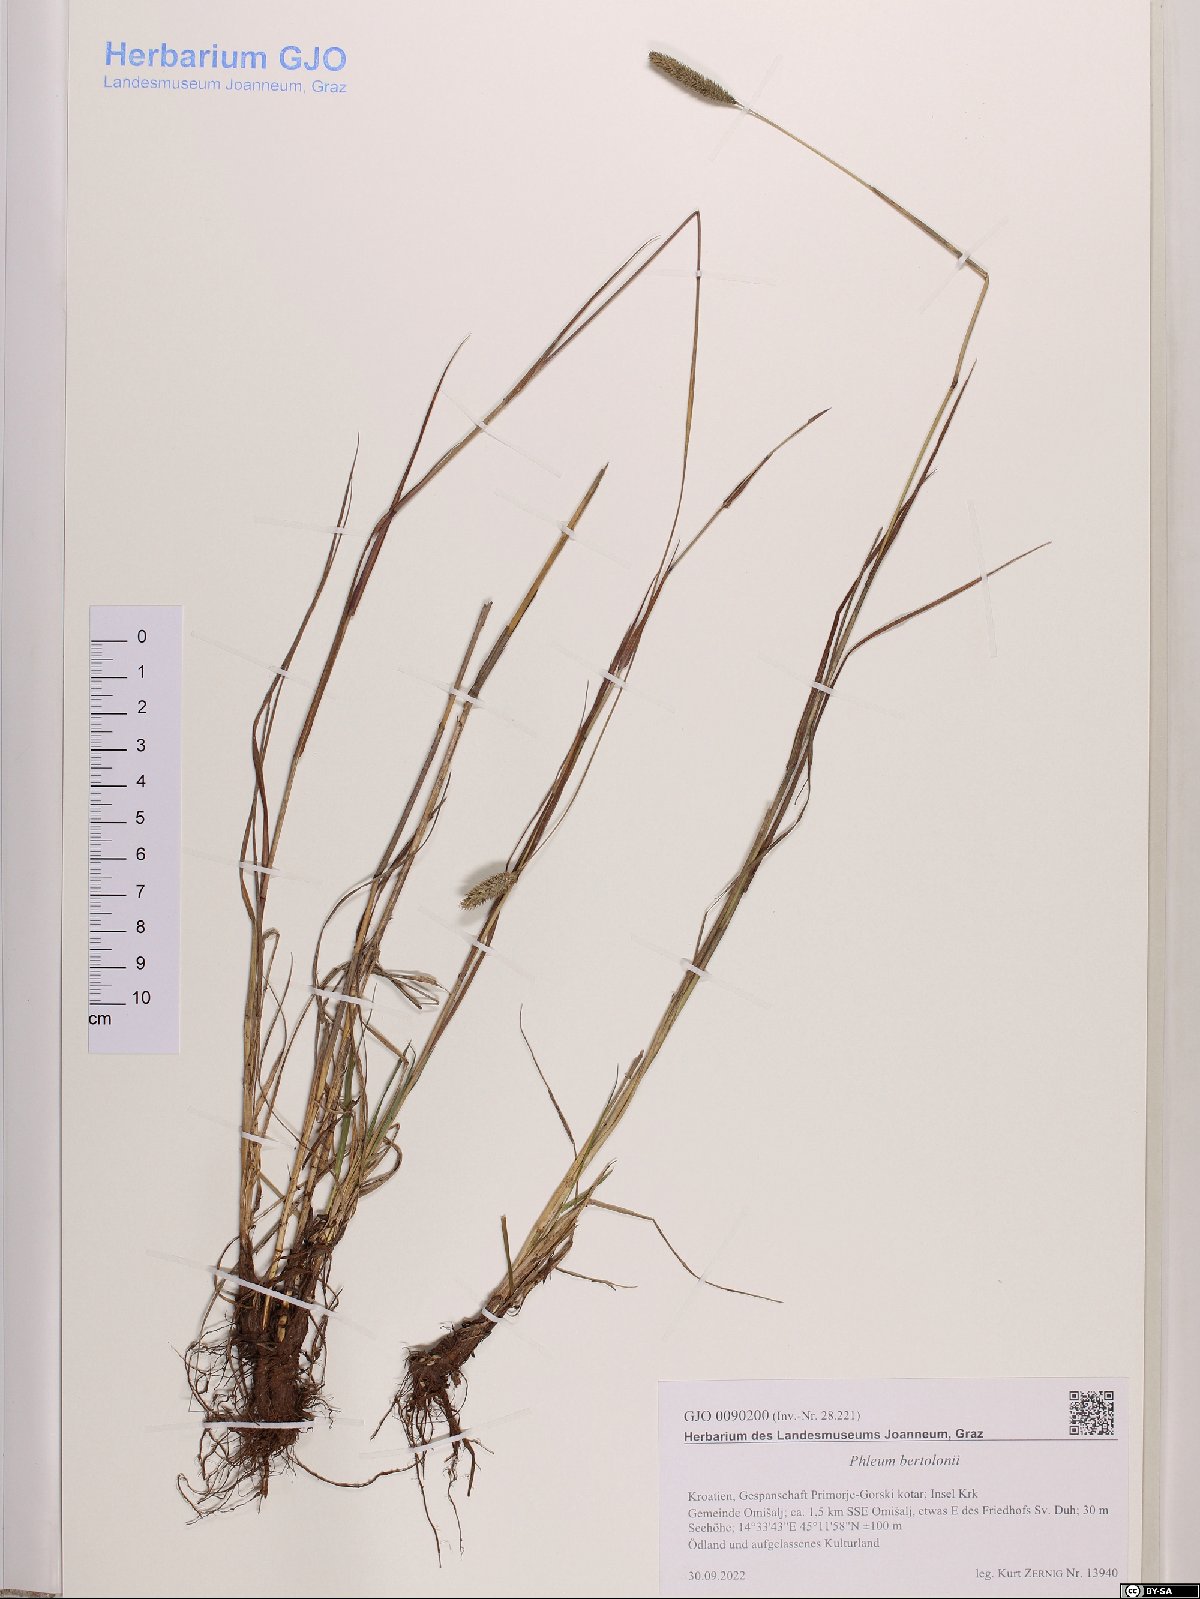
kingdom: Plantae
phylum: Tracheophyta
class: Liliopsida
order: Poales
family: Poaceae
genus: Phleum
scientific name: Phleum bertolonii
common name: Smaller cat's-tail
